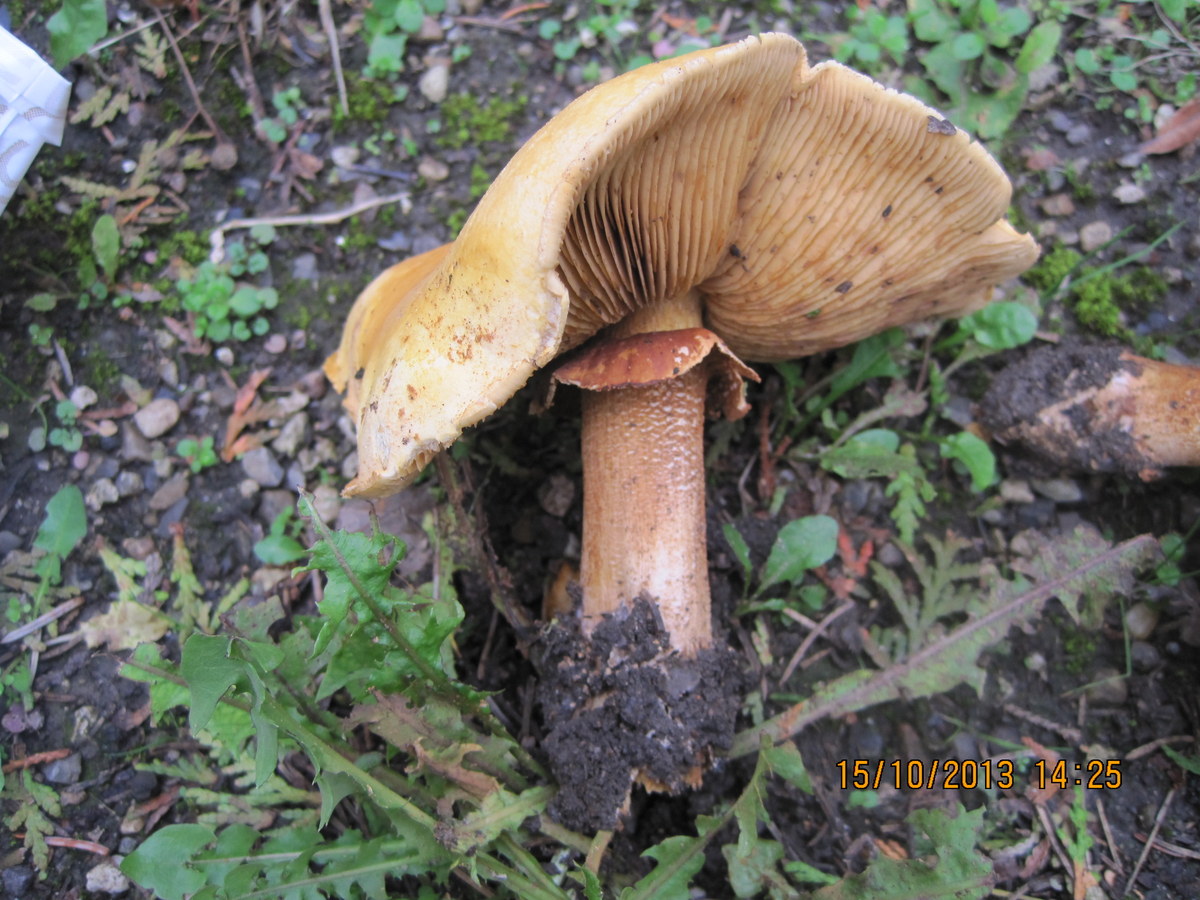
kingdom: Fungi
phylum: Basidiomycota
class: Agaricomycetes
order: Agaricales
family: Tricholomataceae
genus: Phaeolepiota
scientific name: Phaeolepiota aurea
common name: gyldenhat
